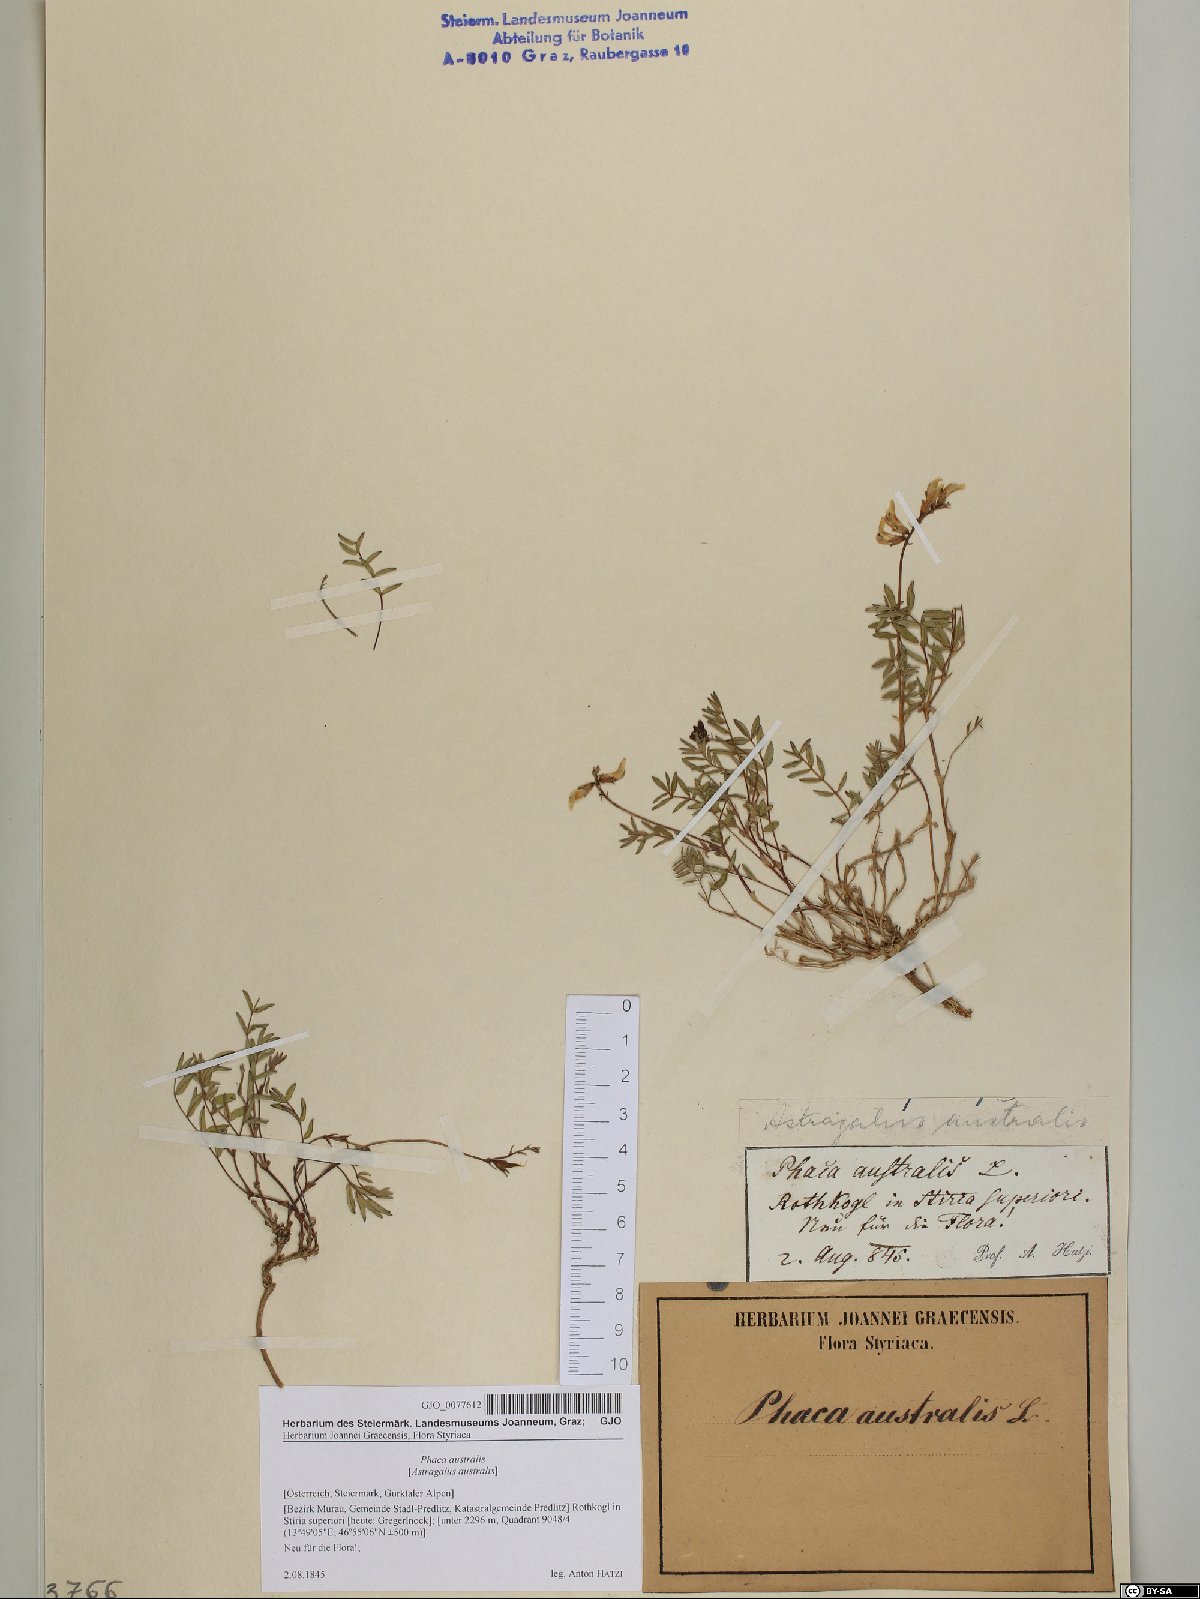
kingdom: Plantae
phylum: Tracheophyta
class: Magnoliopsida
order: Fabales
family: Fabaceae
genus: Astragalus
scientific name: Astragalus australis
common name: Indian milk-vetch
